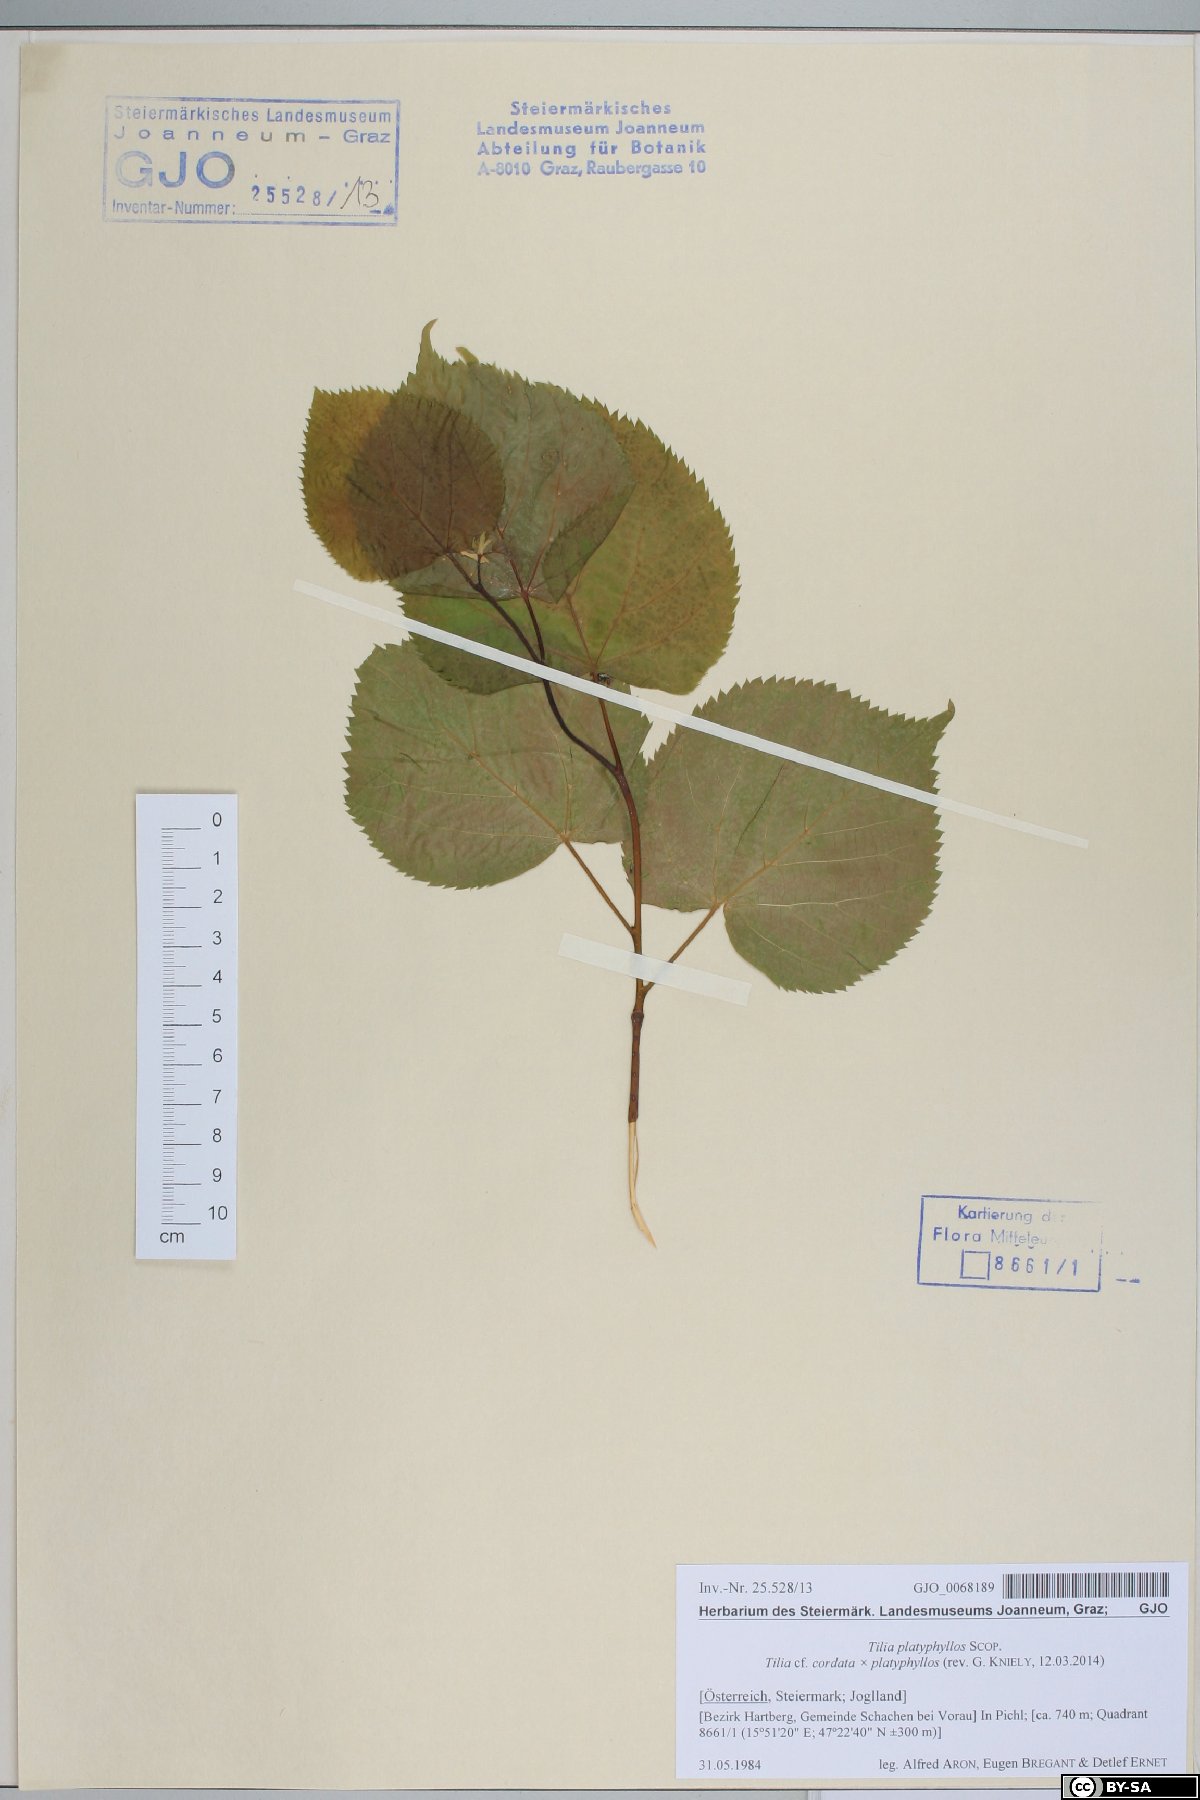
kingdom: Plantae
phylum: Tracheophyta
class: Magnoliopsida
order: Malvales
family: Tiliaceae
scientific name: Tiliaceae
